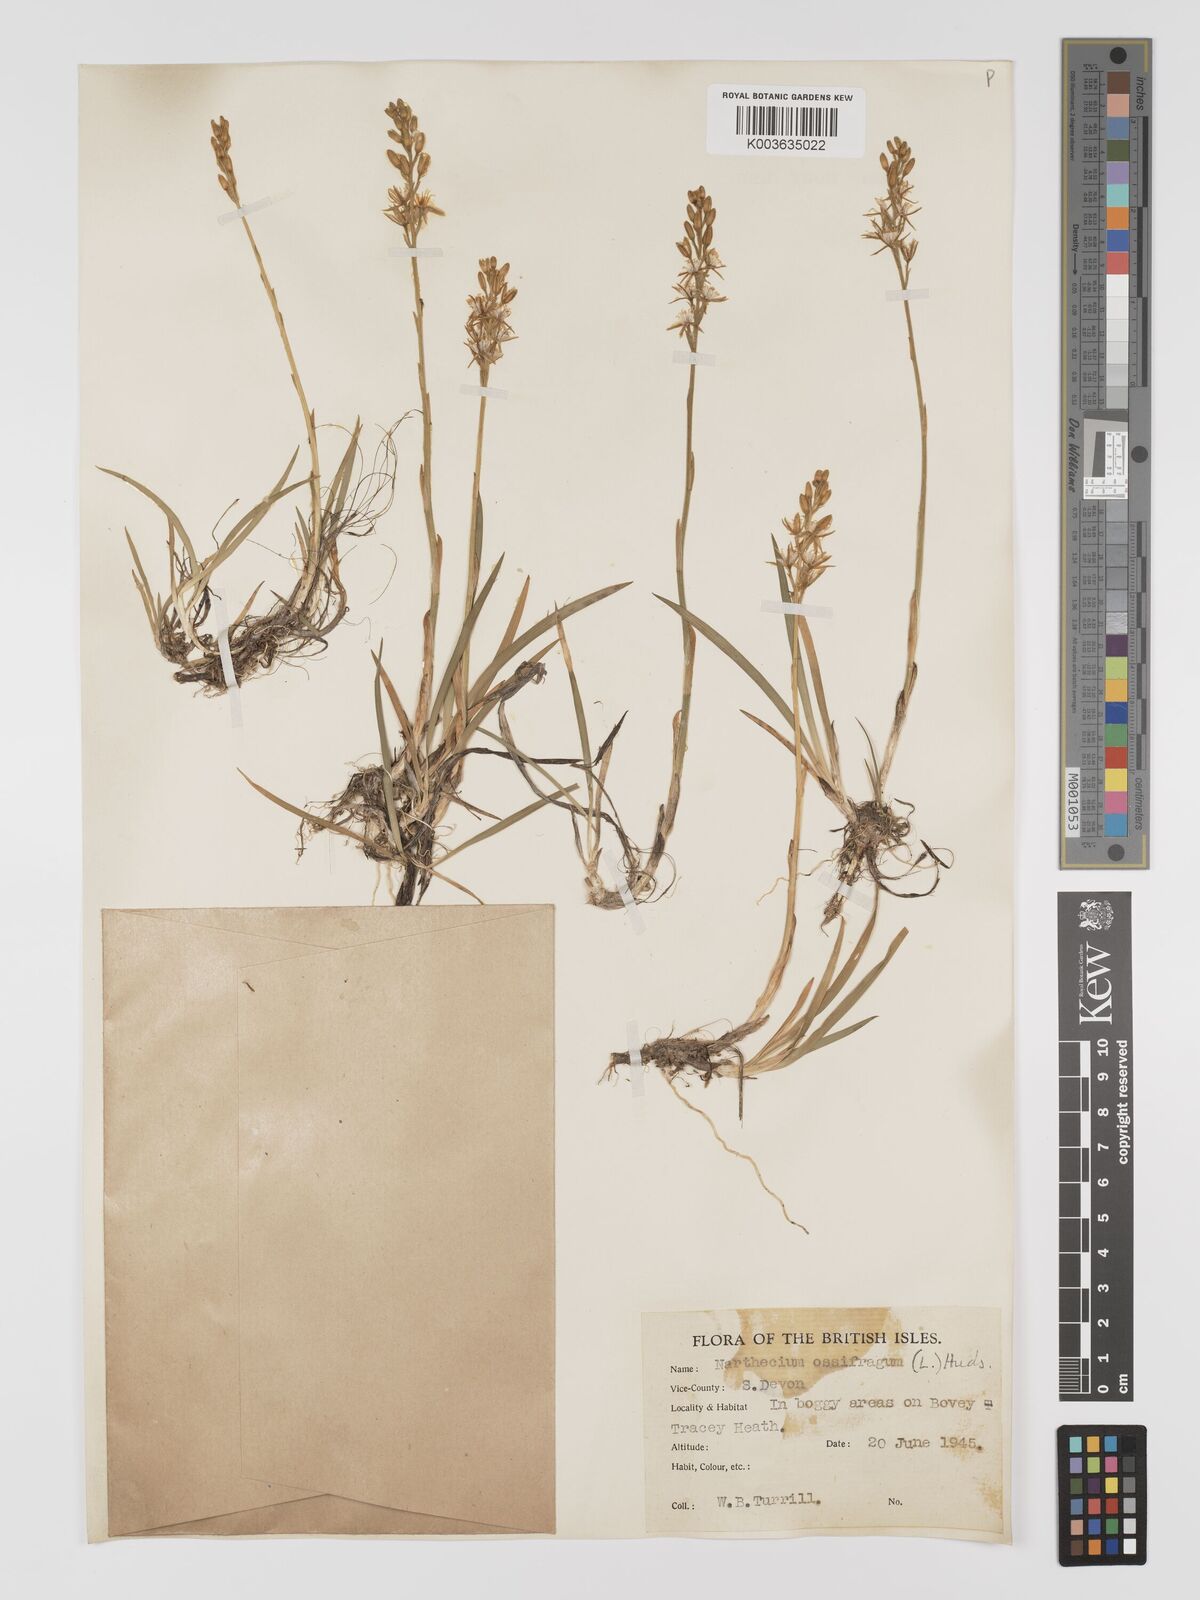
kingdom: Plantae
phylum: Tracheophyta
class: Liliopsida
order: Dioscoreales
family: Nartheciaceae
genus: Narthecium
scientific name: Narthecium ossifragum
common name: Bog asphodel
